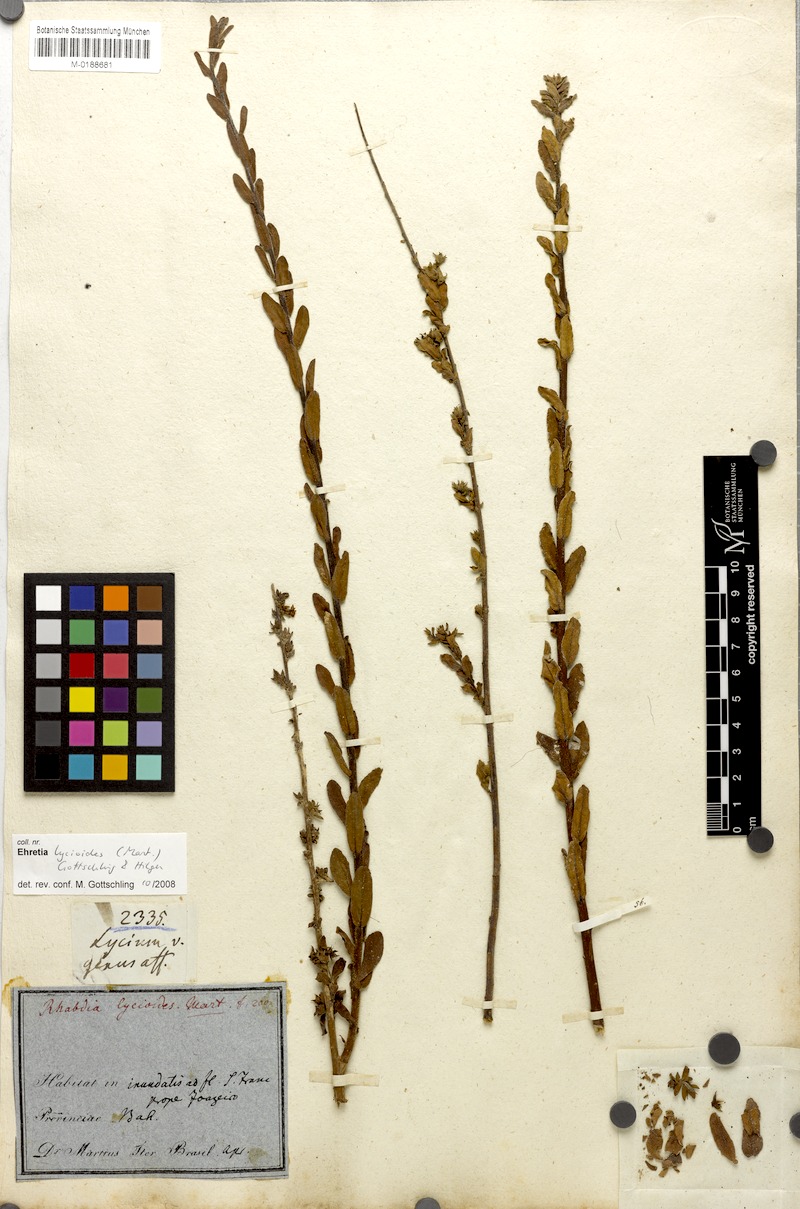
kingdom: Plantae
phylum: Tracheophyta
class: Magnoliopsida
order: Boraginales
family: Ehretiaceae
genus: Ehretia
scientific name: Ehretia lycioides
